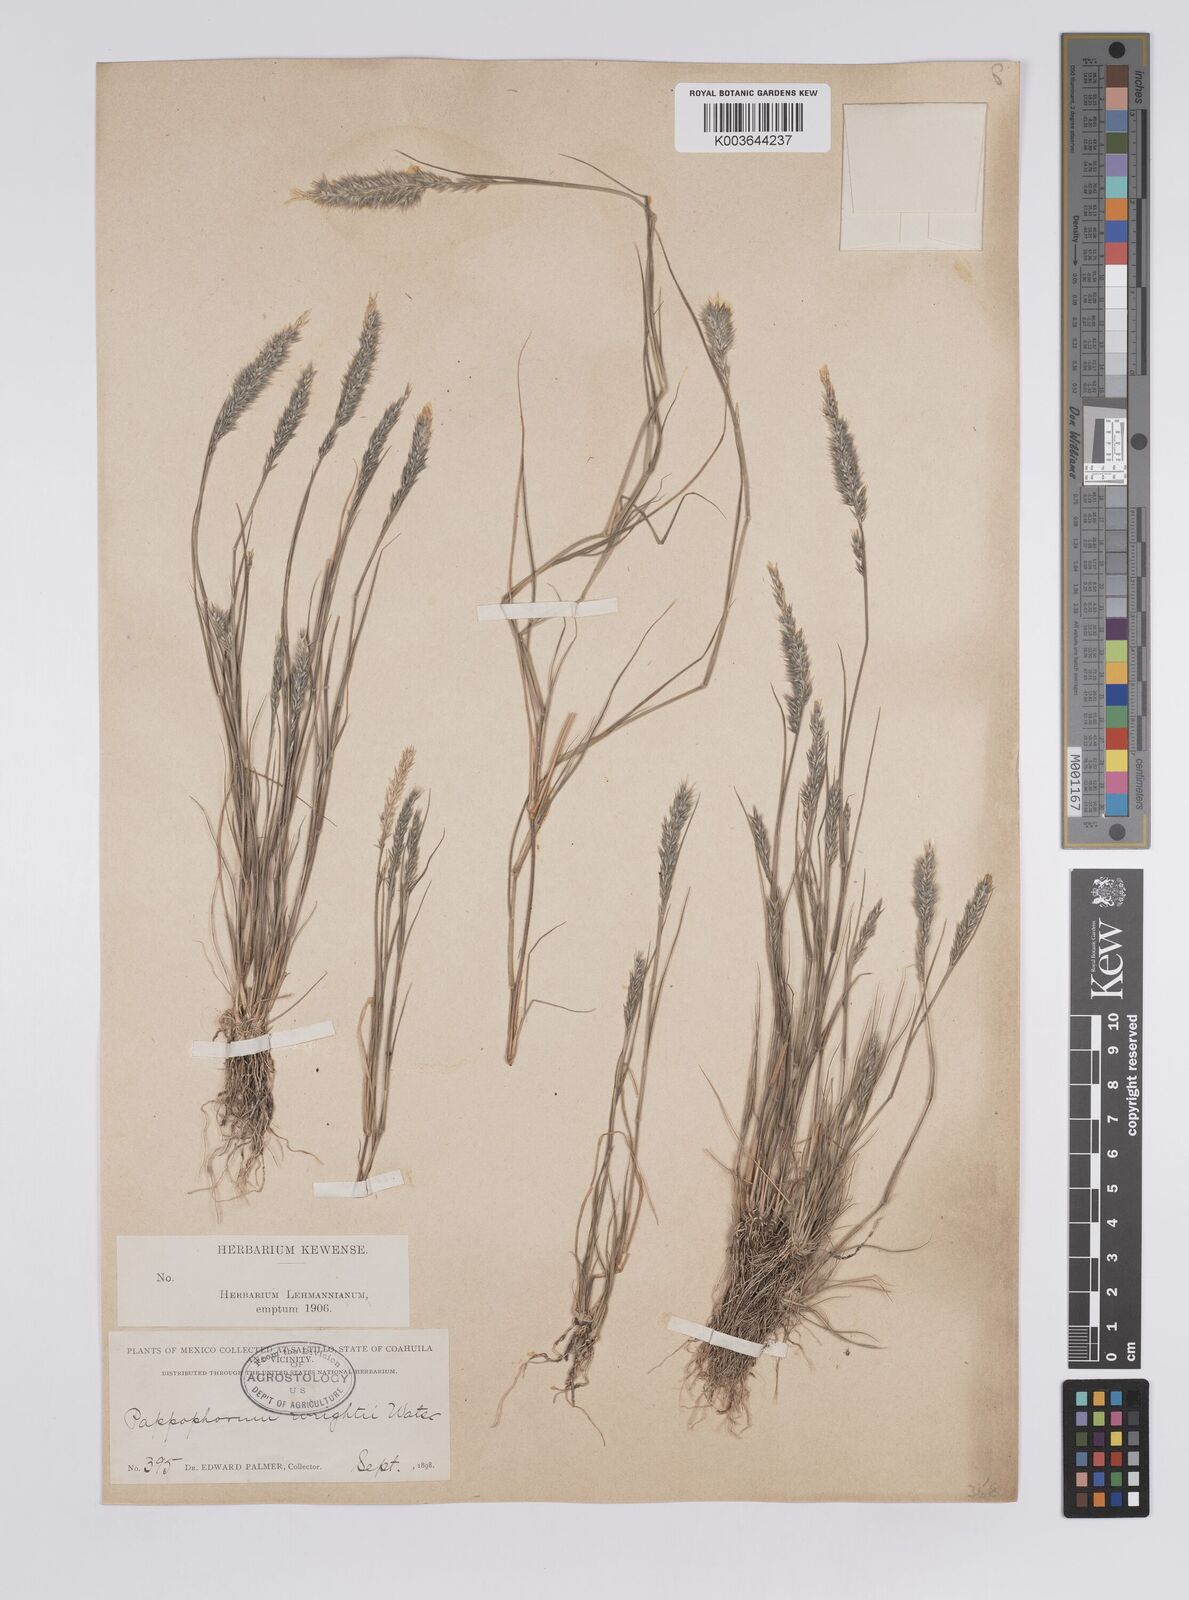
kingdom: Plantae
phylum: Tracheophyta
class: Liliopsida
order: Poales
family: Poaceae
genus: Enneapogon
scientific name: Enneapogon desvauxii
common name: Feather pappus grass
